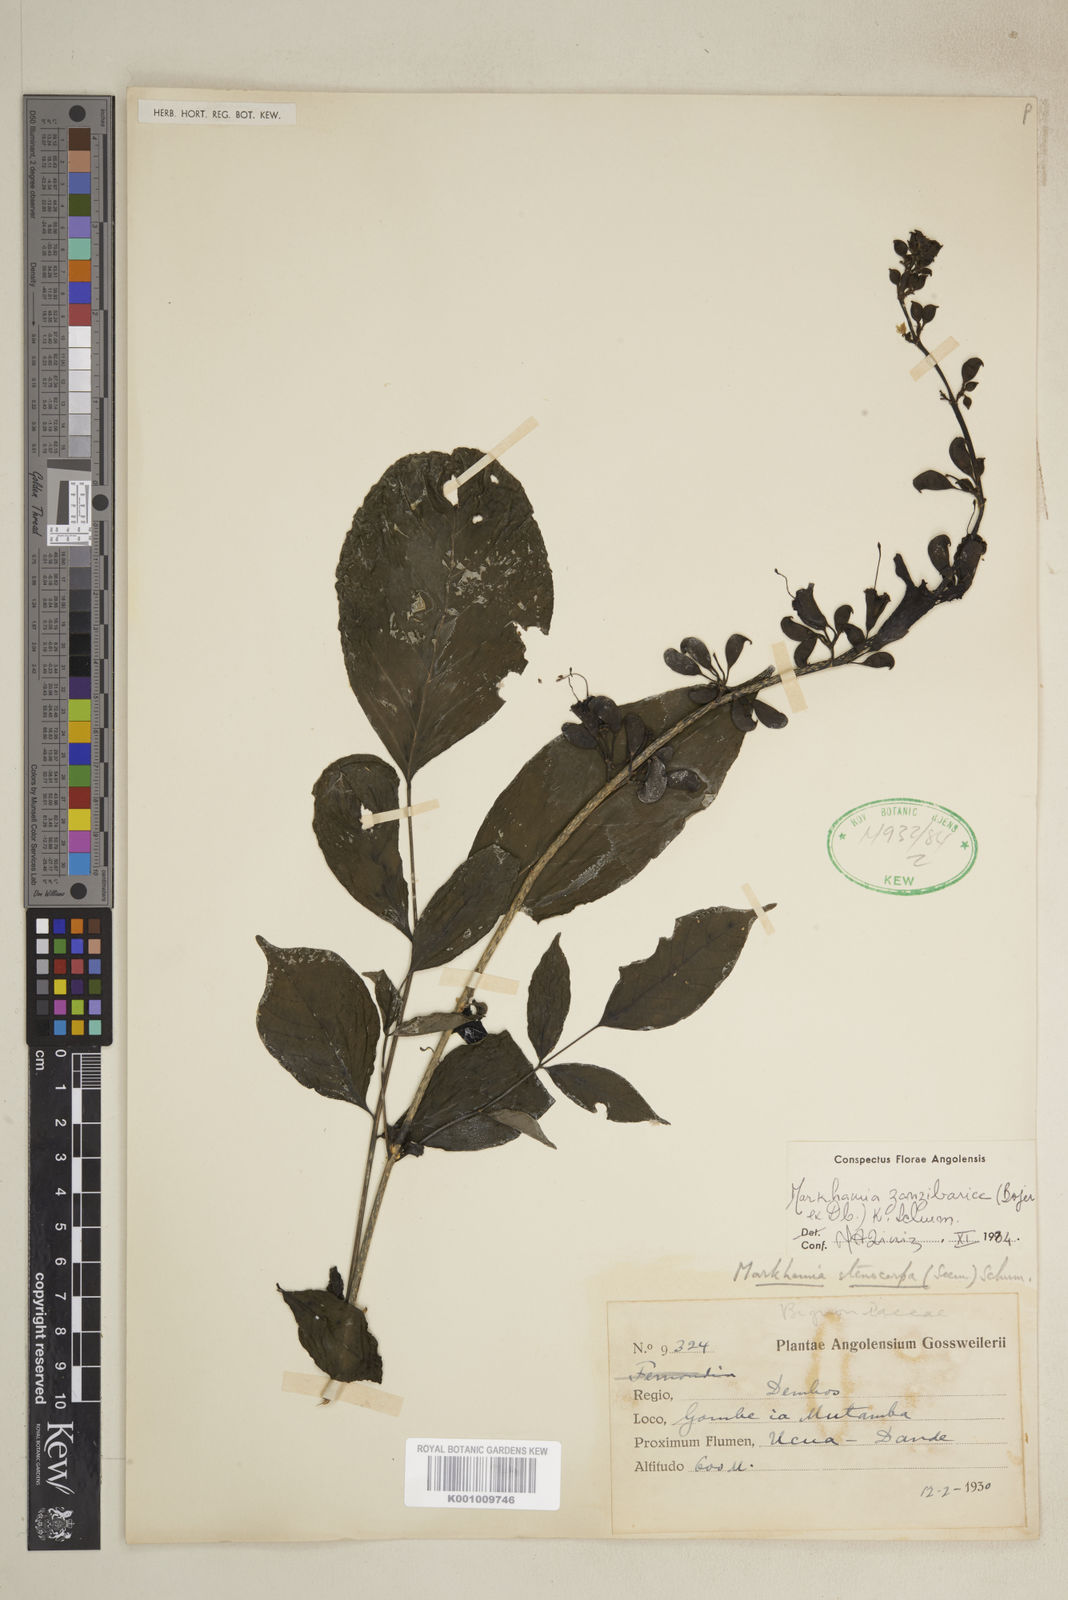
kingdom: Plantae
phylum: Tracheophyta
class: Magnoliopsida
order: Lamiales
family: Bignoniaceae
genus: Markhamia
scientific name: Markhamia zanzibarica
